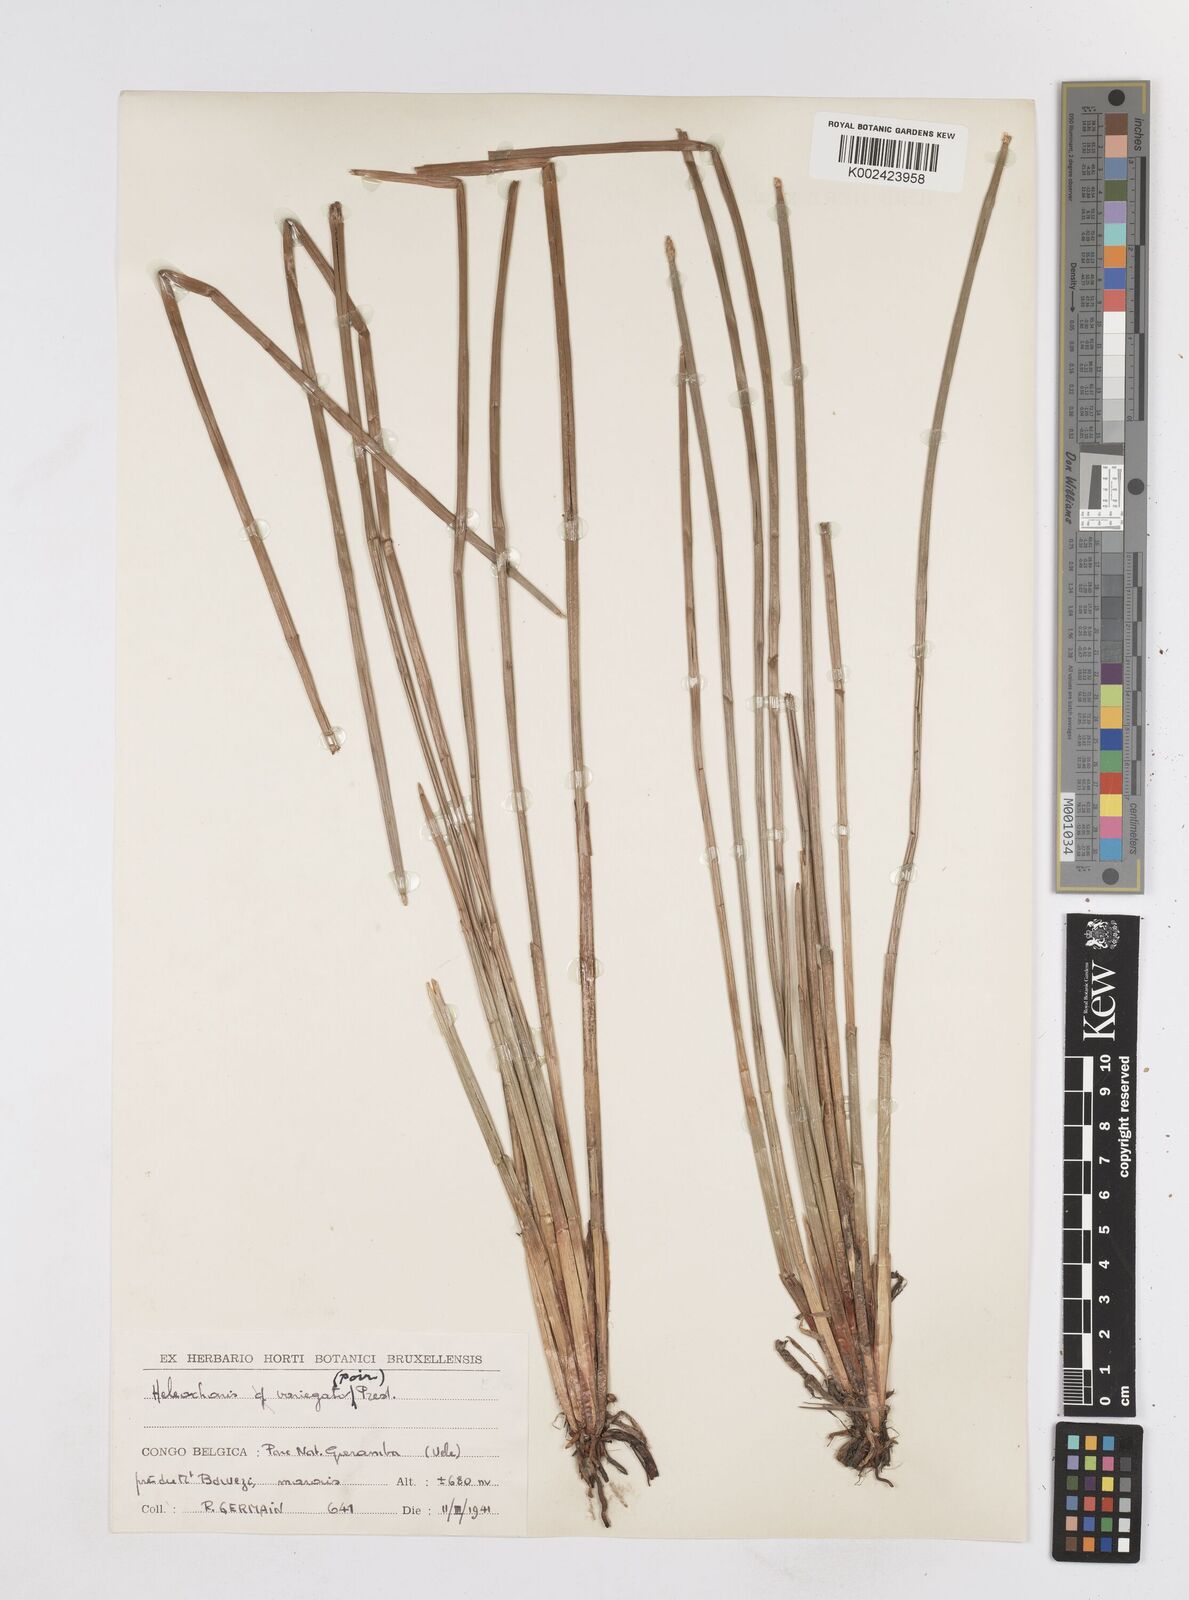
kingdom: Plantae
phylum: Tracheophyta
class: Liliopsida
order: Poales
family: Cyperaceae
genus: Eleocharis
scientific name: Eleocharis variegata
